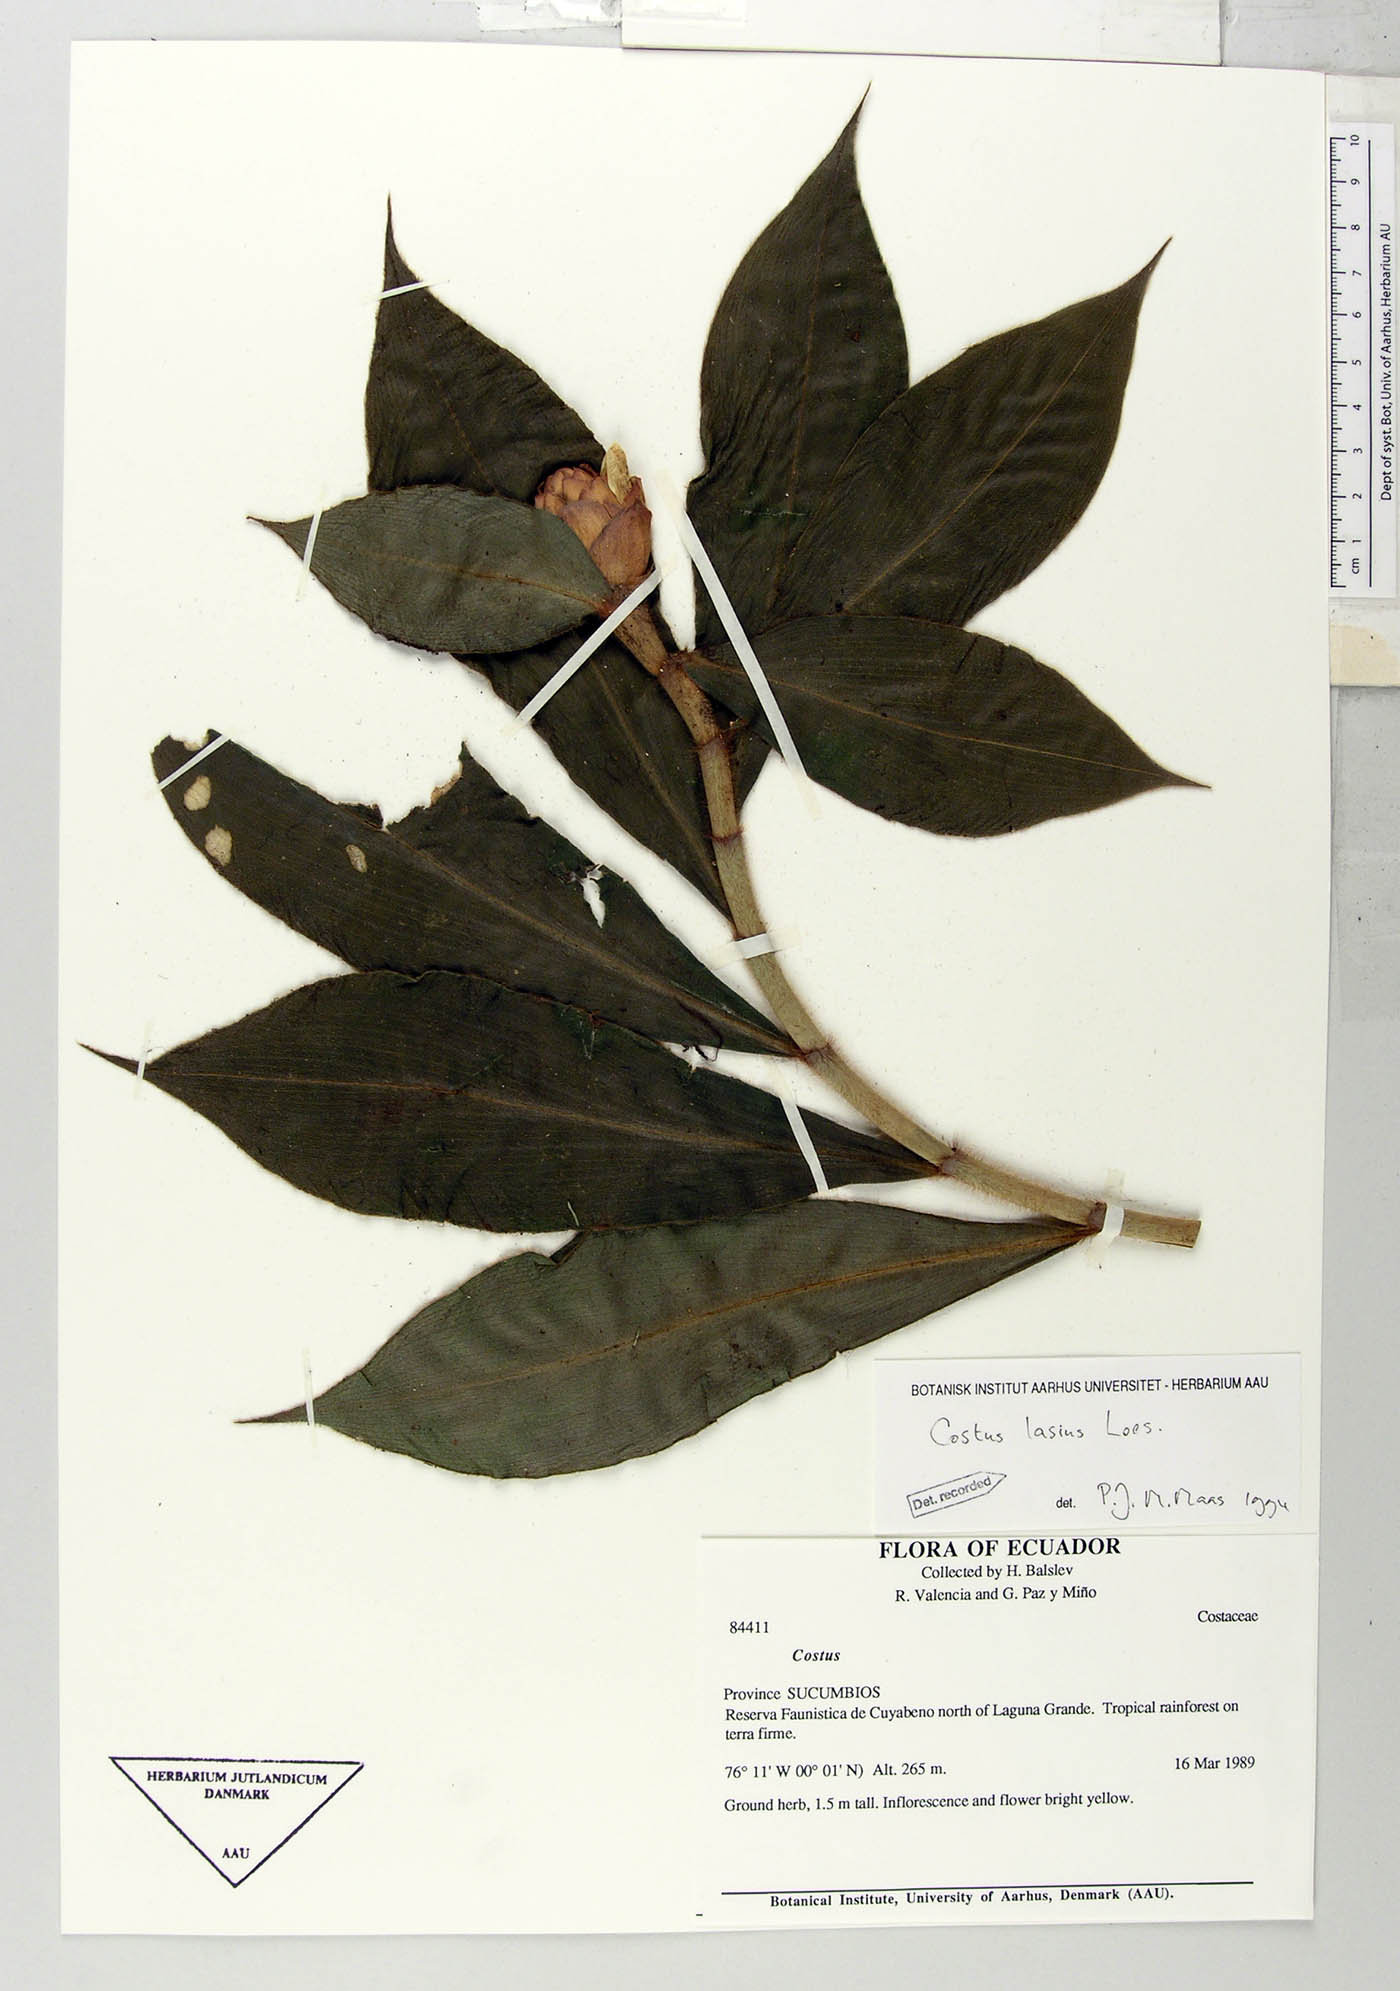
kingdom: Plantae
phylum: Tracheophyta
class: Liliopsida
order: Zingiberales
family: Costaceae
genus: Costus
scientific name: Costus lasius
